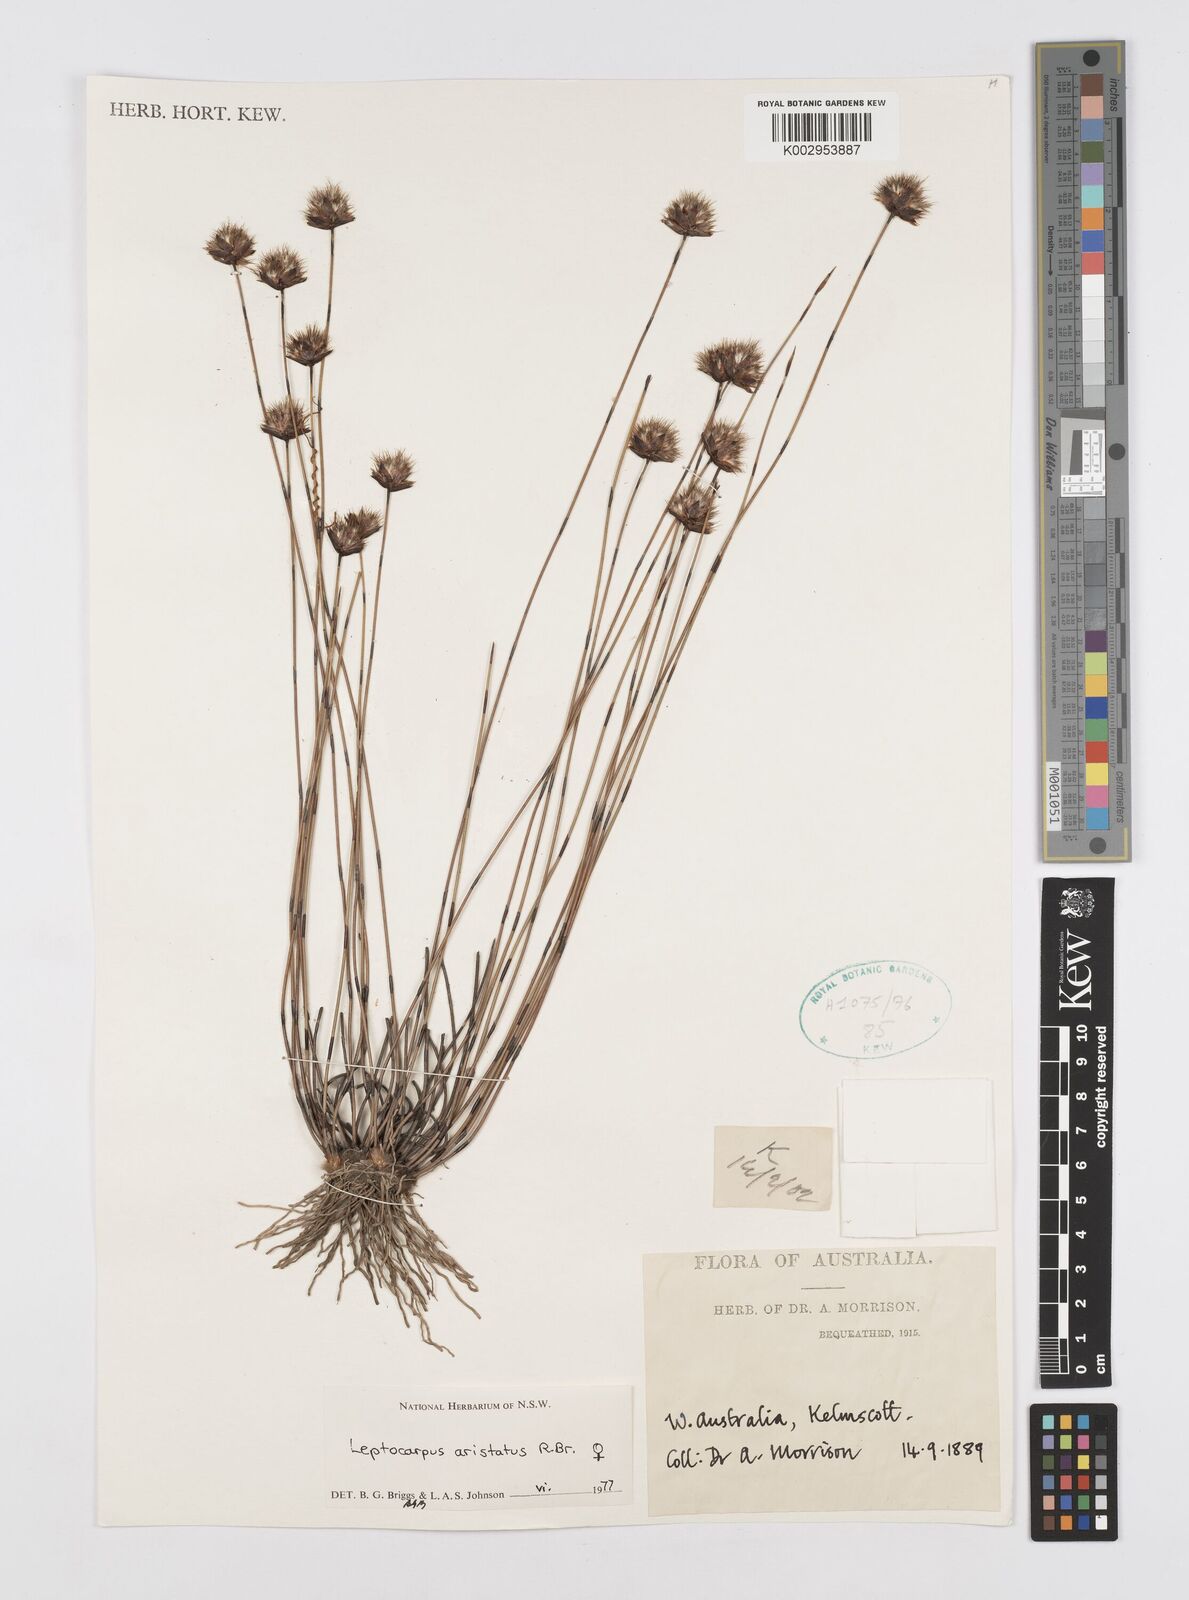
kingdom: Plantae
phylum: Tracheophyta
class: Liliopsida
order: Poales
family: Restionaceae
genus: Chaetanthus
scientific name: Chaetanthus aristatus
